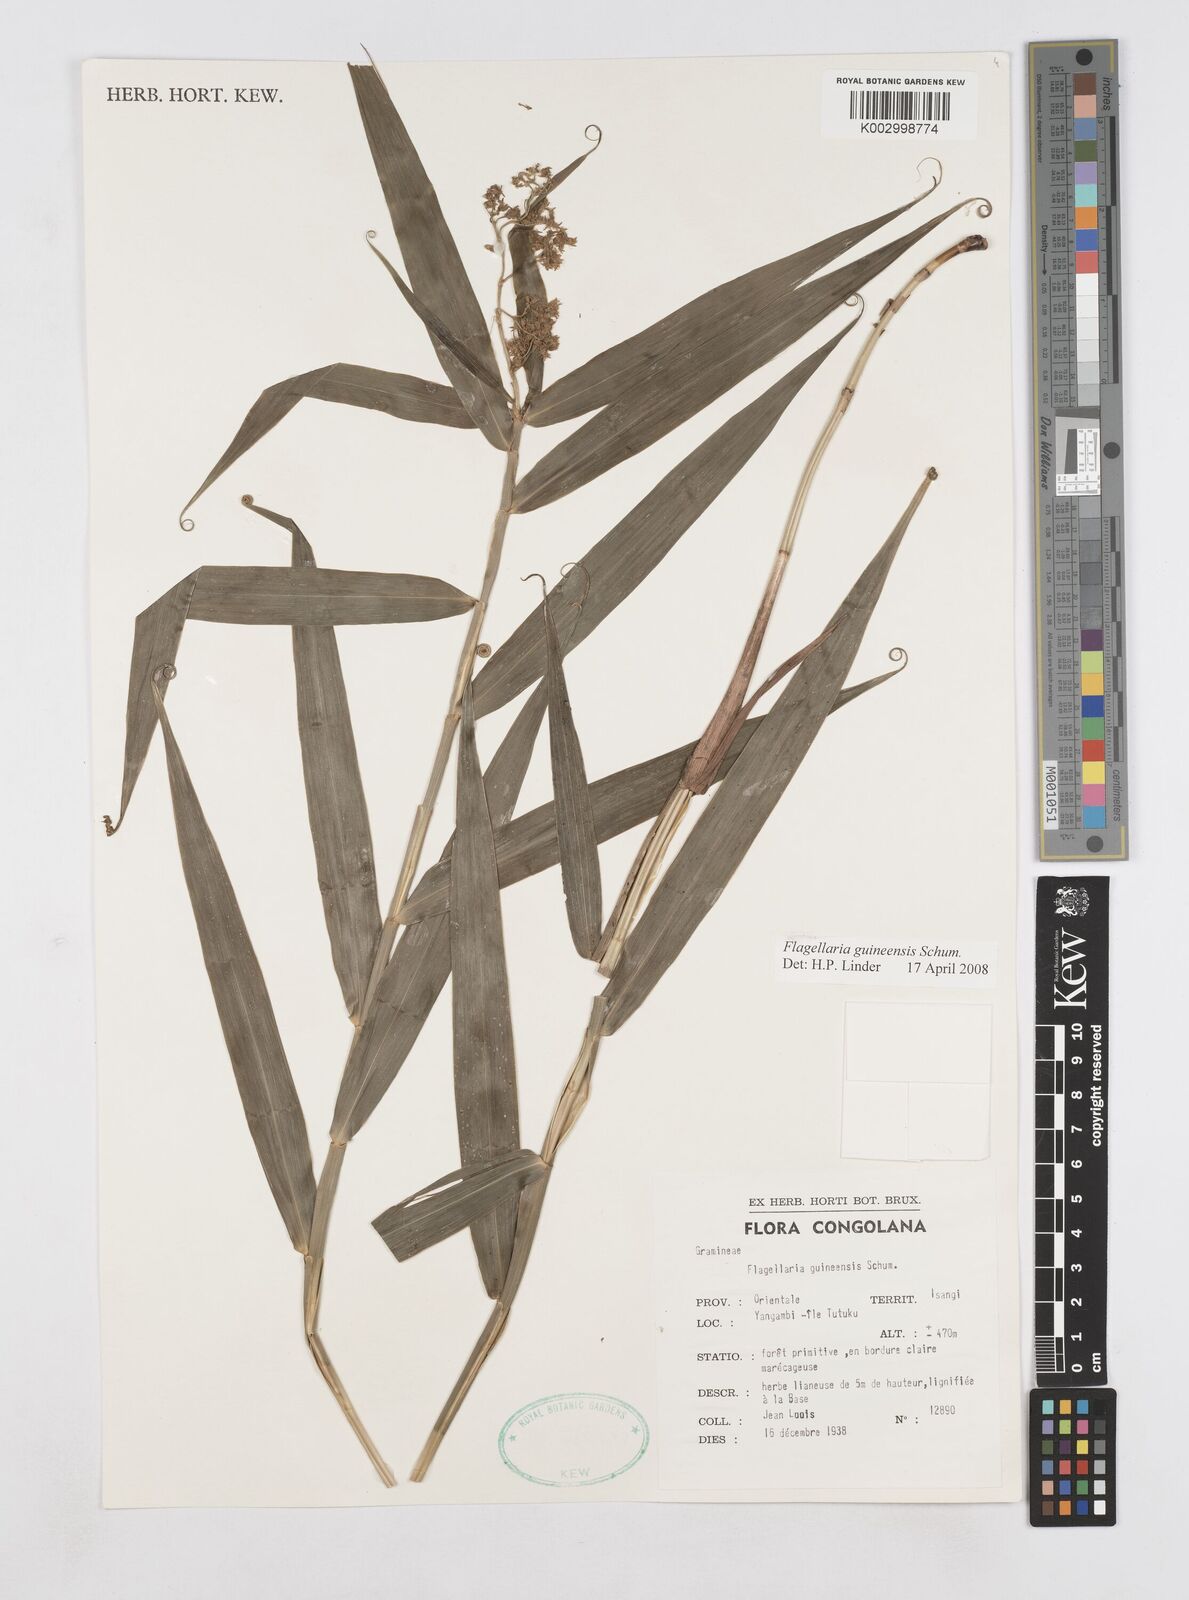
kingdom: Plantae
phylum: Tracheophyta
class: Liliopsida
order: Poales
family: Flagellariaceae
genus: Flagellaria
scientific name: Flagellaria guineensis
